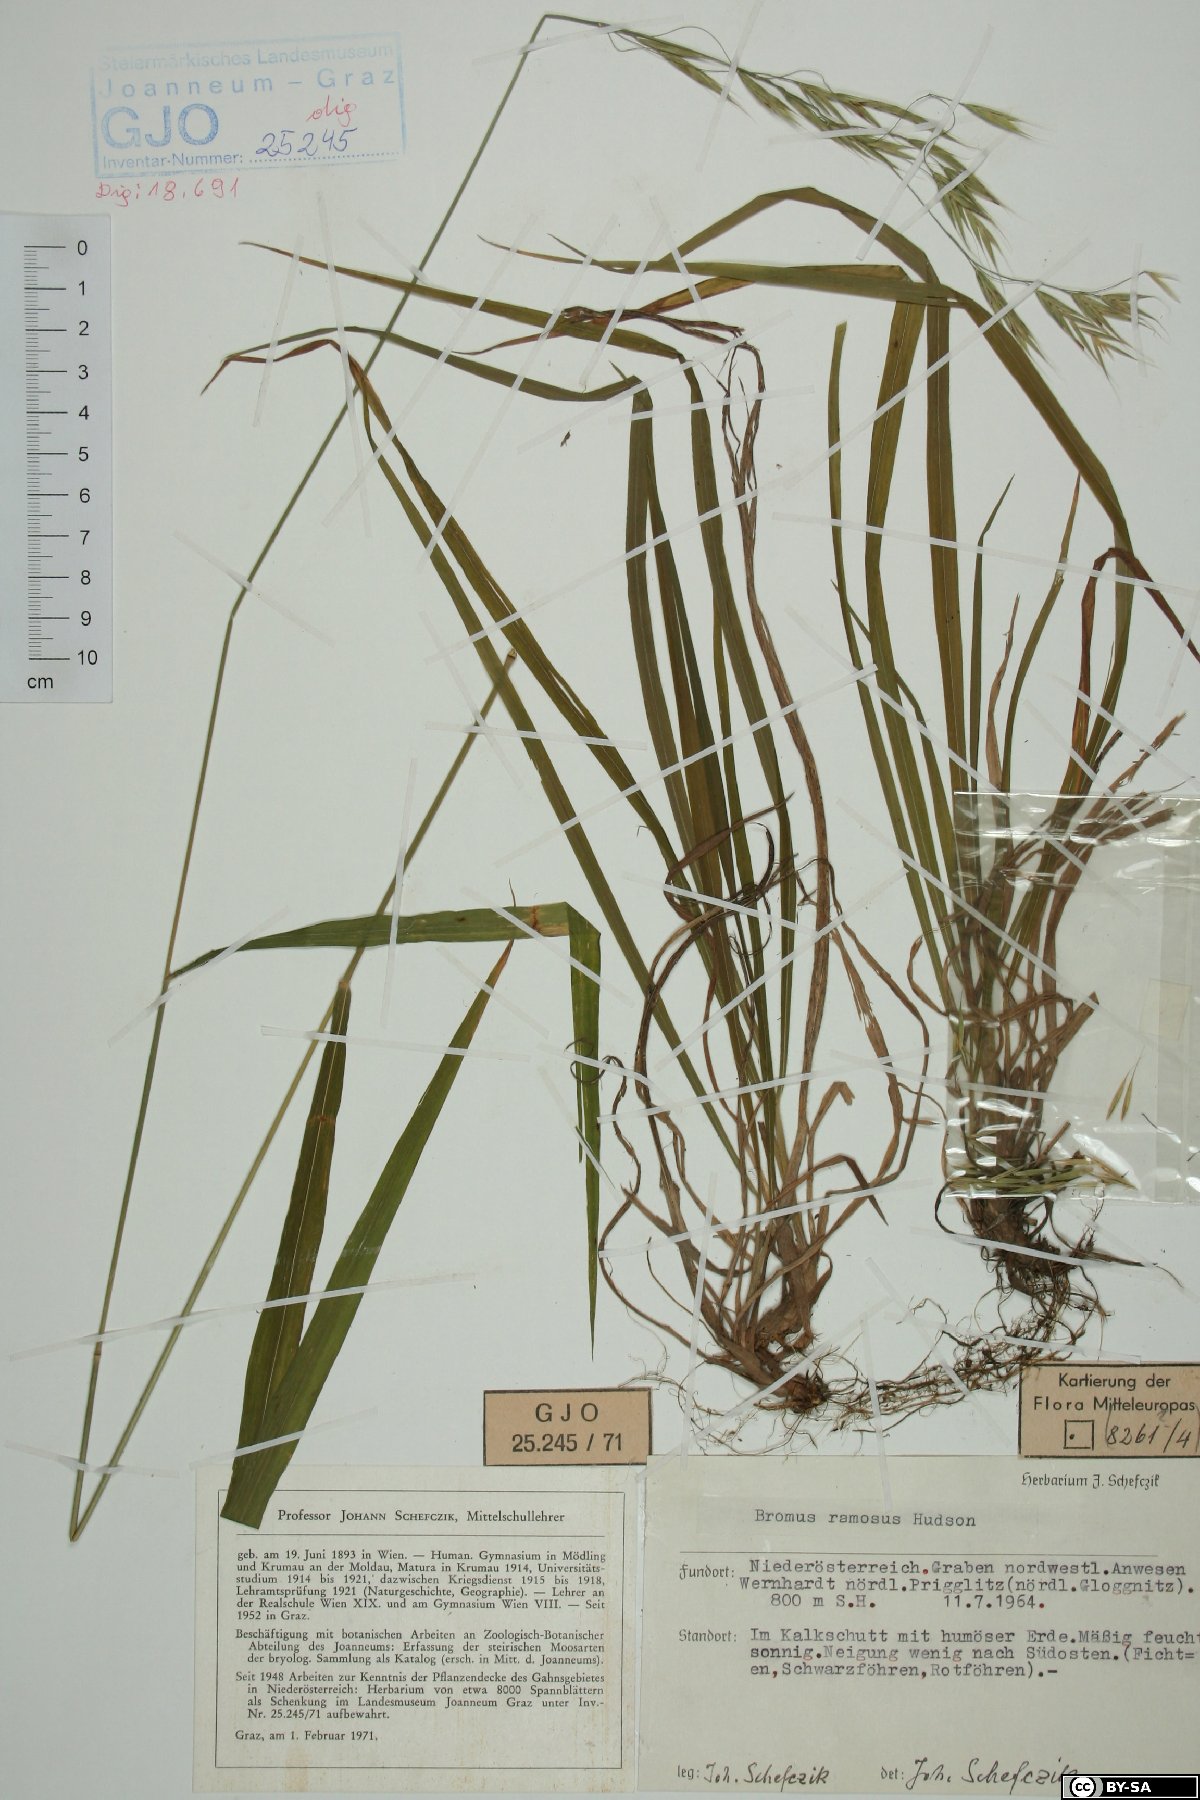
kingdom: Plantae
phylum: Tracheophyta
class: Liliopsida
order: Poales
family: Poaceae
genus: Bromus
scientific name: Bromus ramosus
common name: Hairy brome
